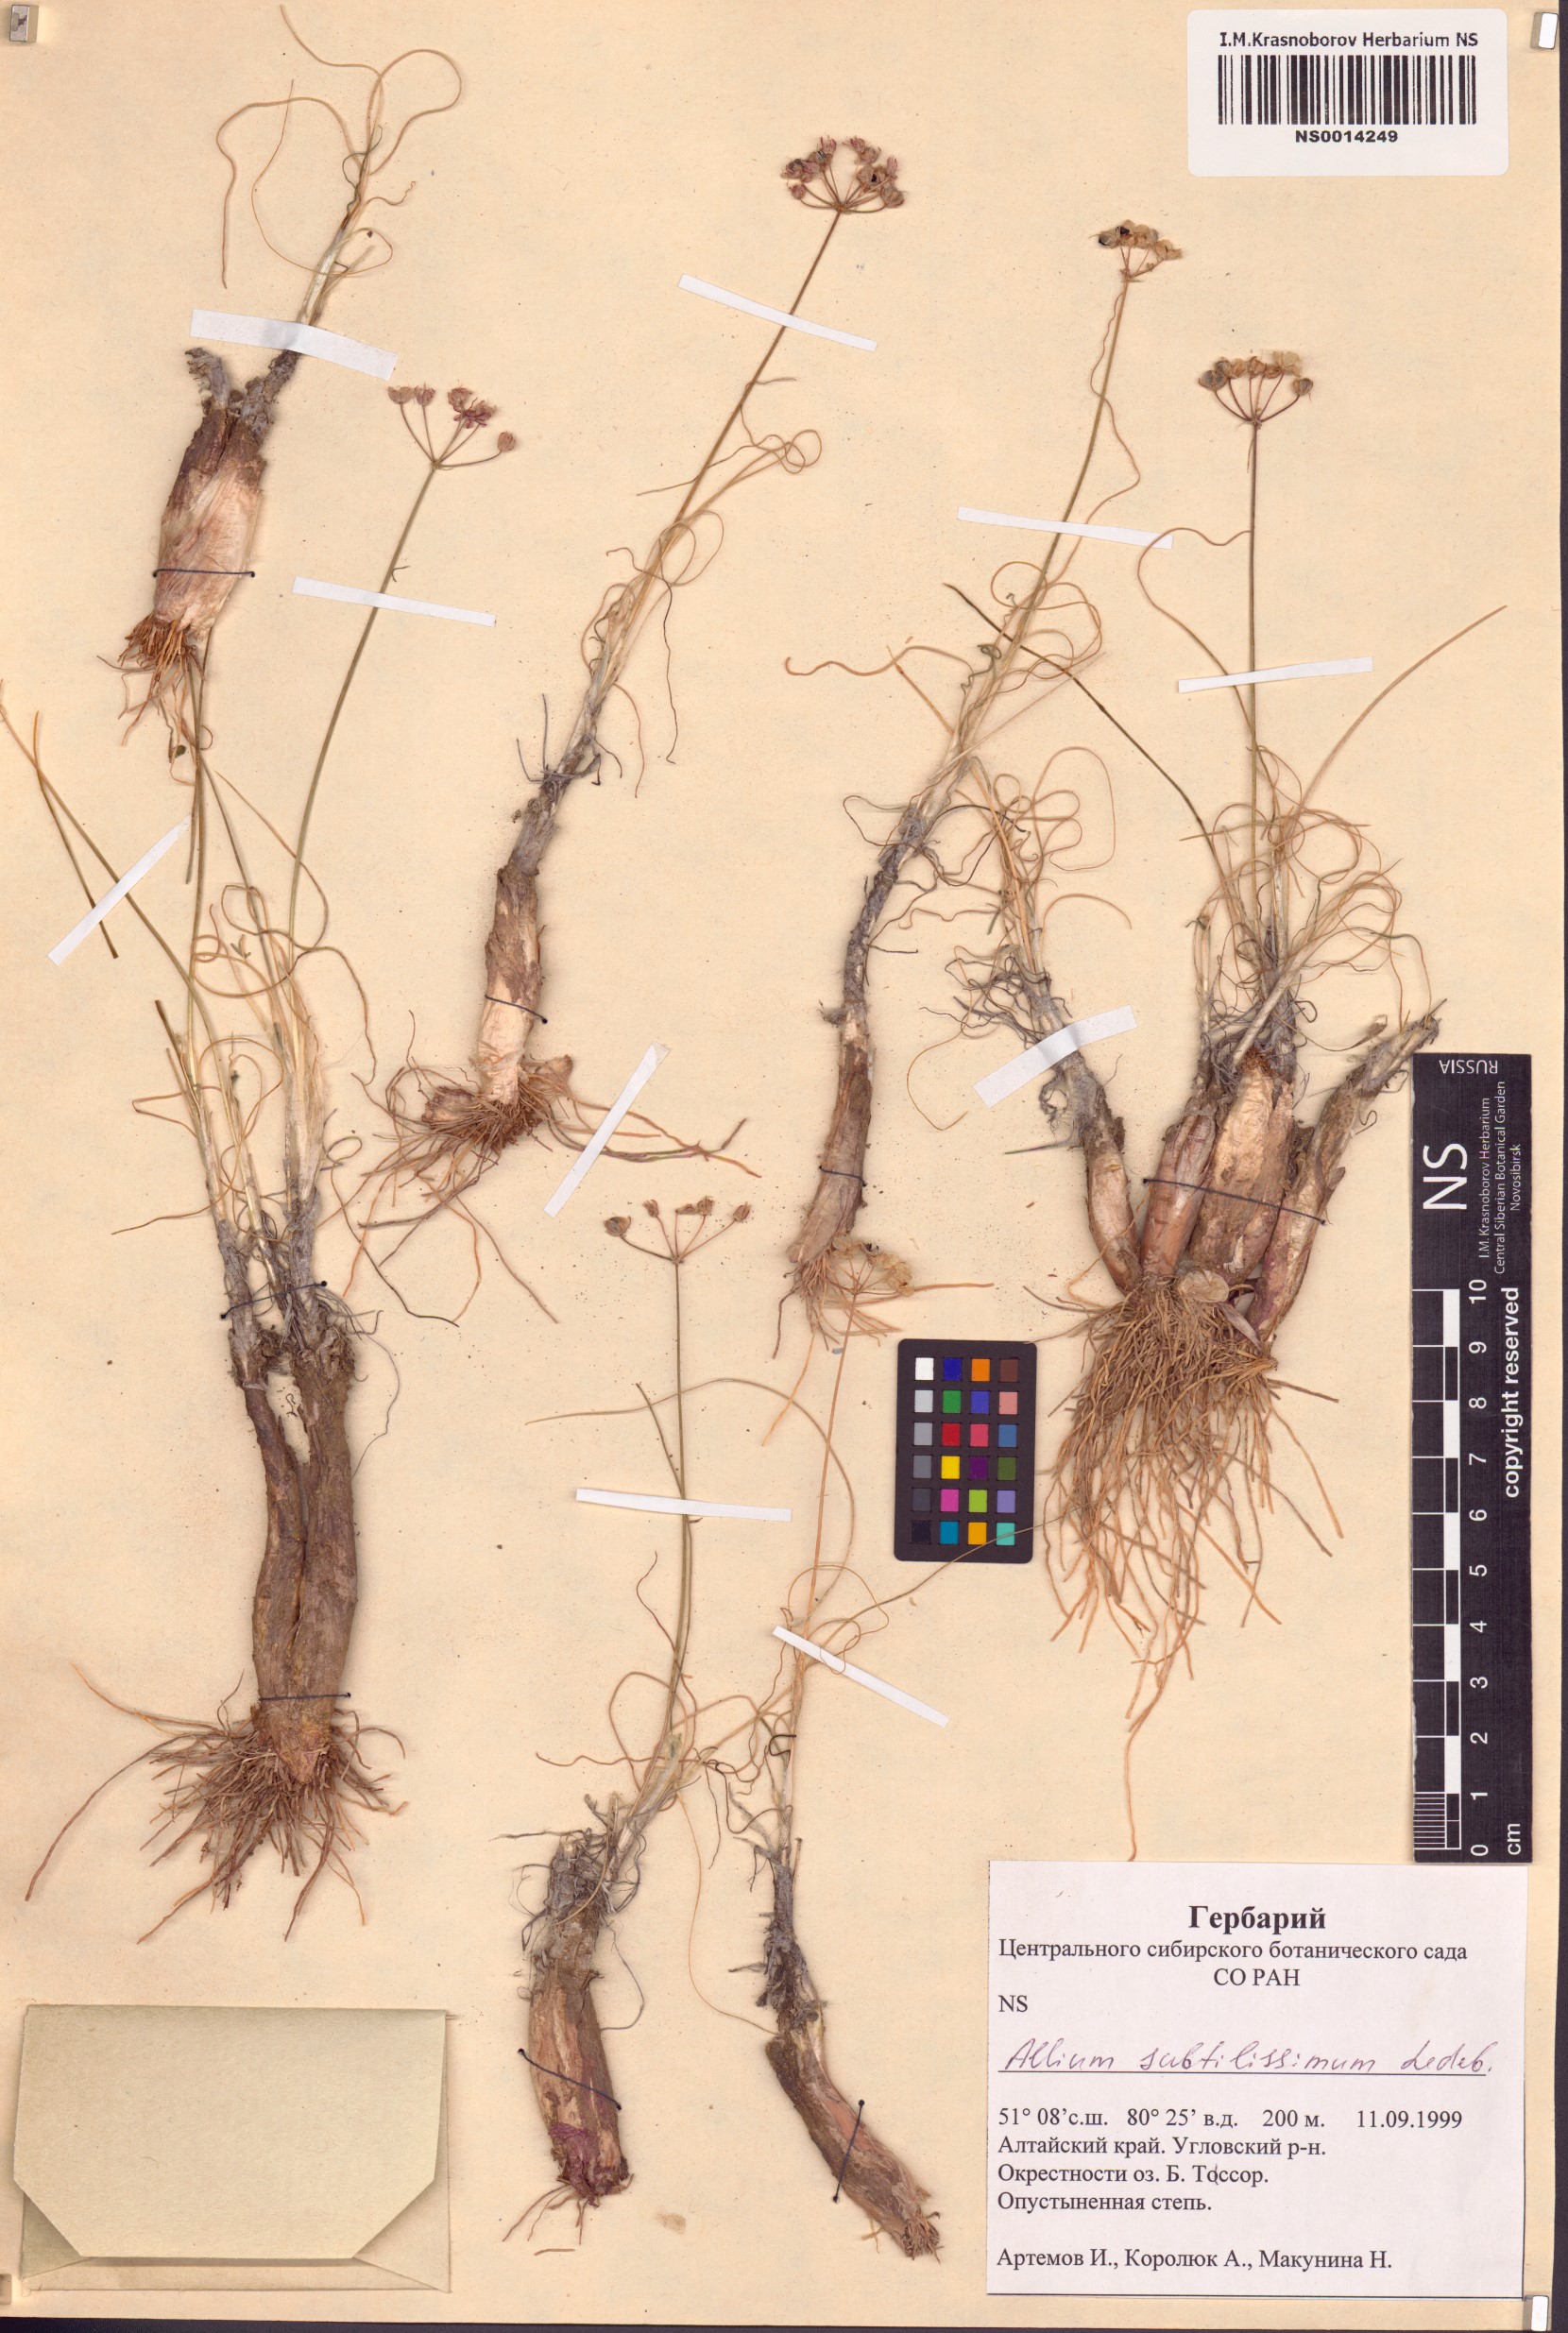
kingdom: Plantae
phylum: Tracheophyta
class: Liliopsida
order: Asparagales
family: Amaryllidaceae
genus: Allium
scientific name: Allium subtilissimum
